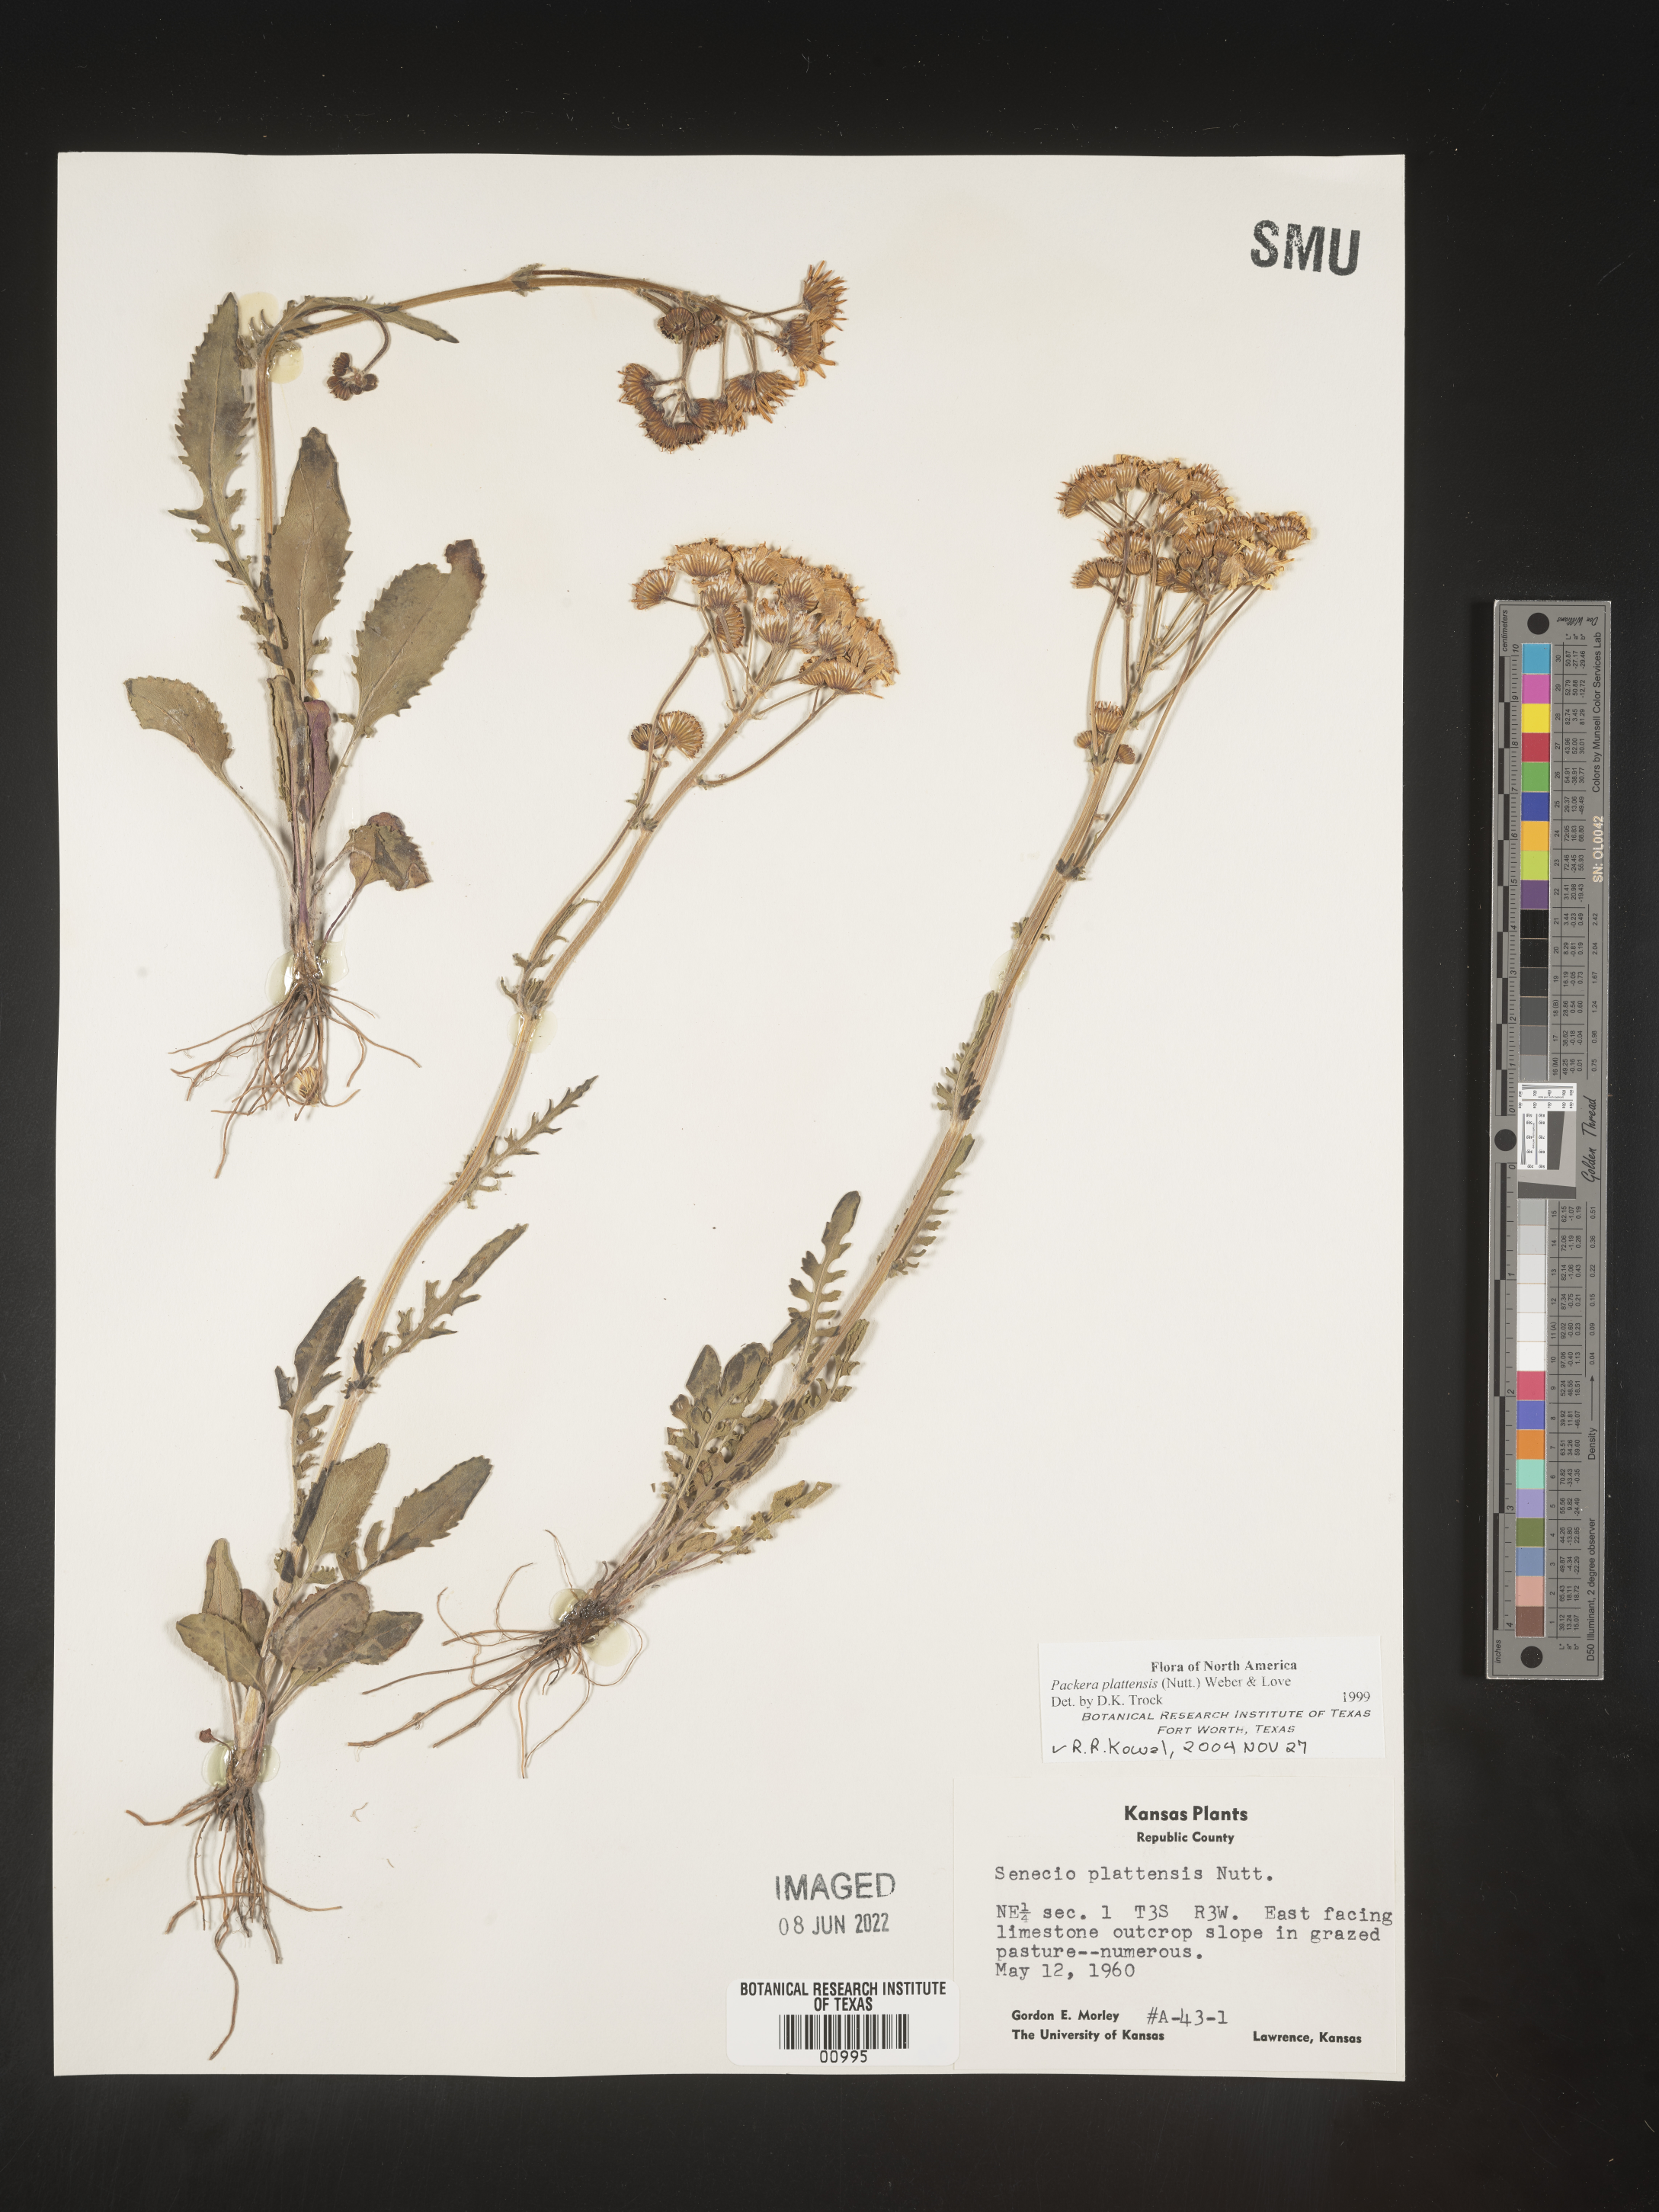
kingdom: Plantae
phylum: Tracheophyta
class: Magnoliopsida
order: Asterales
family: Asteraceae
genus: Packera
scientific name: Packera plattensis
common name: Prairie groundsel
